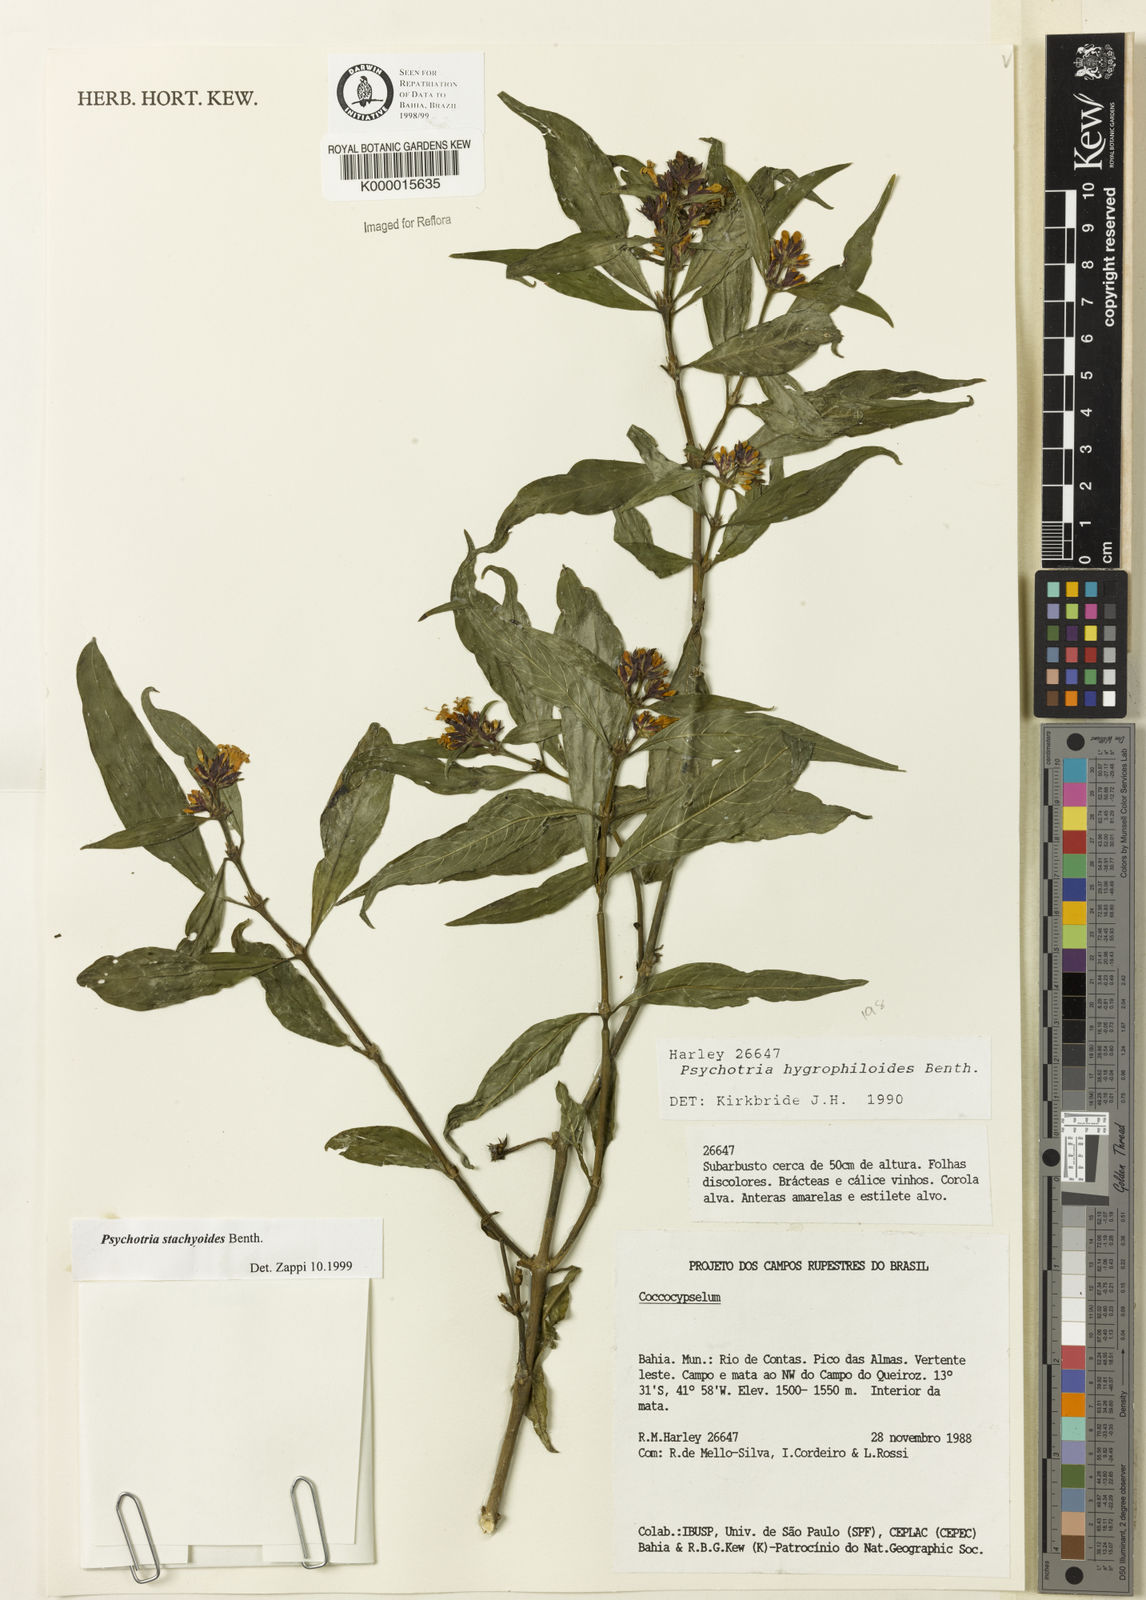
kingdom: Plantae
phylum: Tracheophyta
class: Magnoliopsida
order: Gentianales
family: Rubiaceae
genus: Psychotria
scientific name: Psychotria stachyoides
